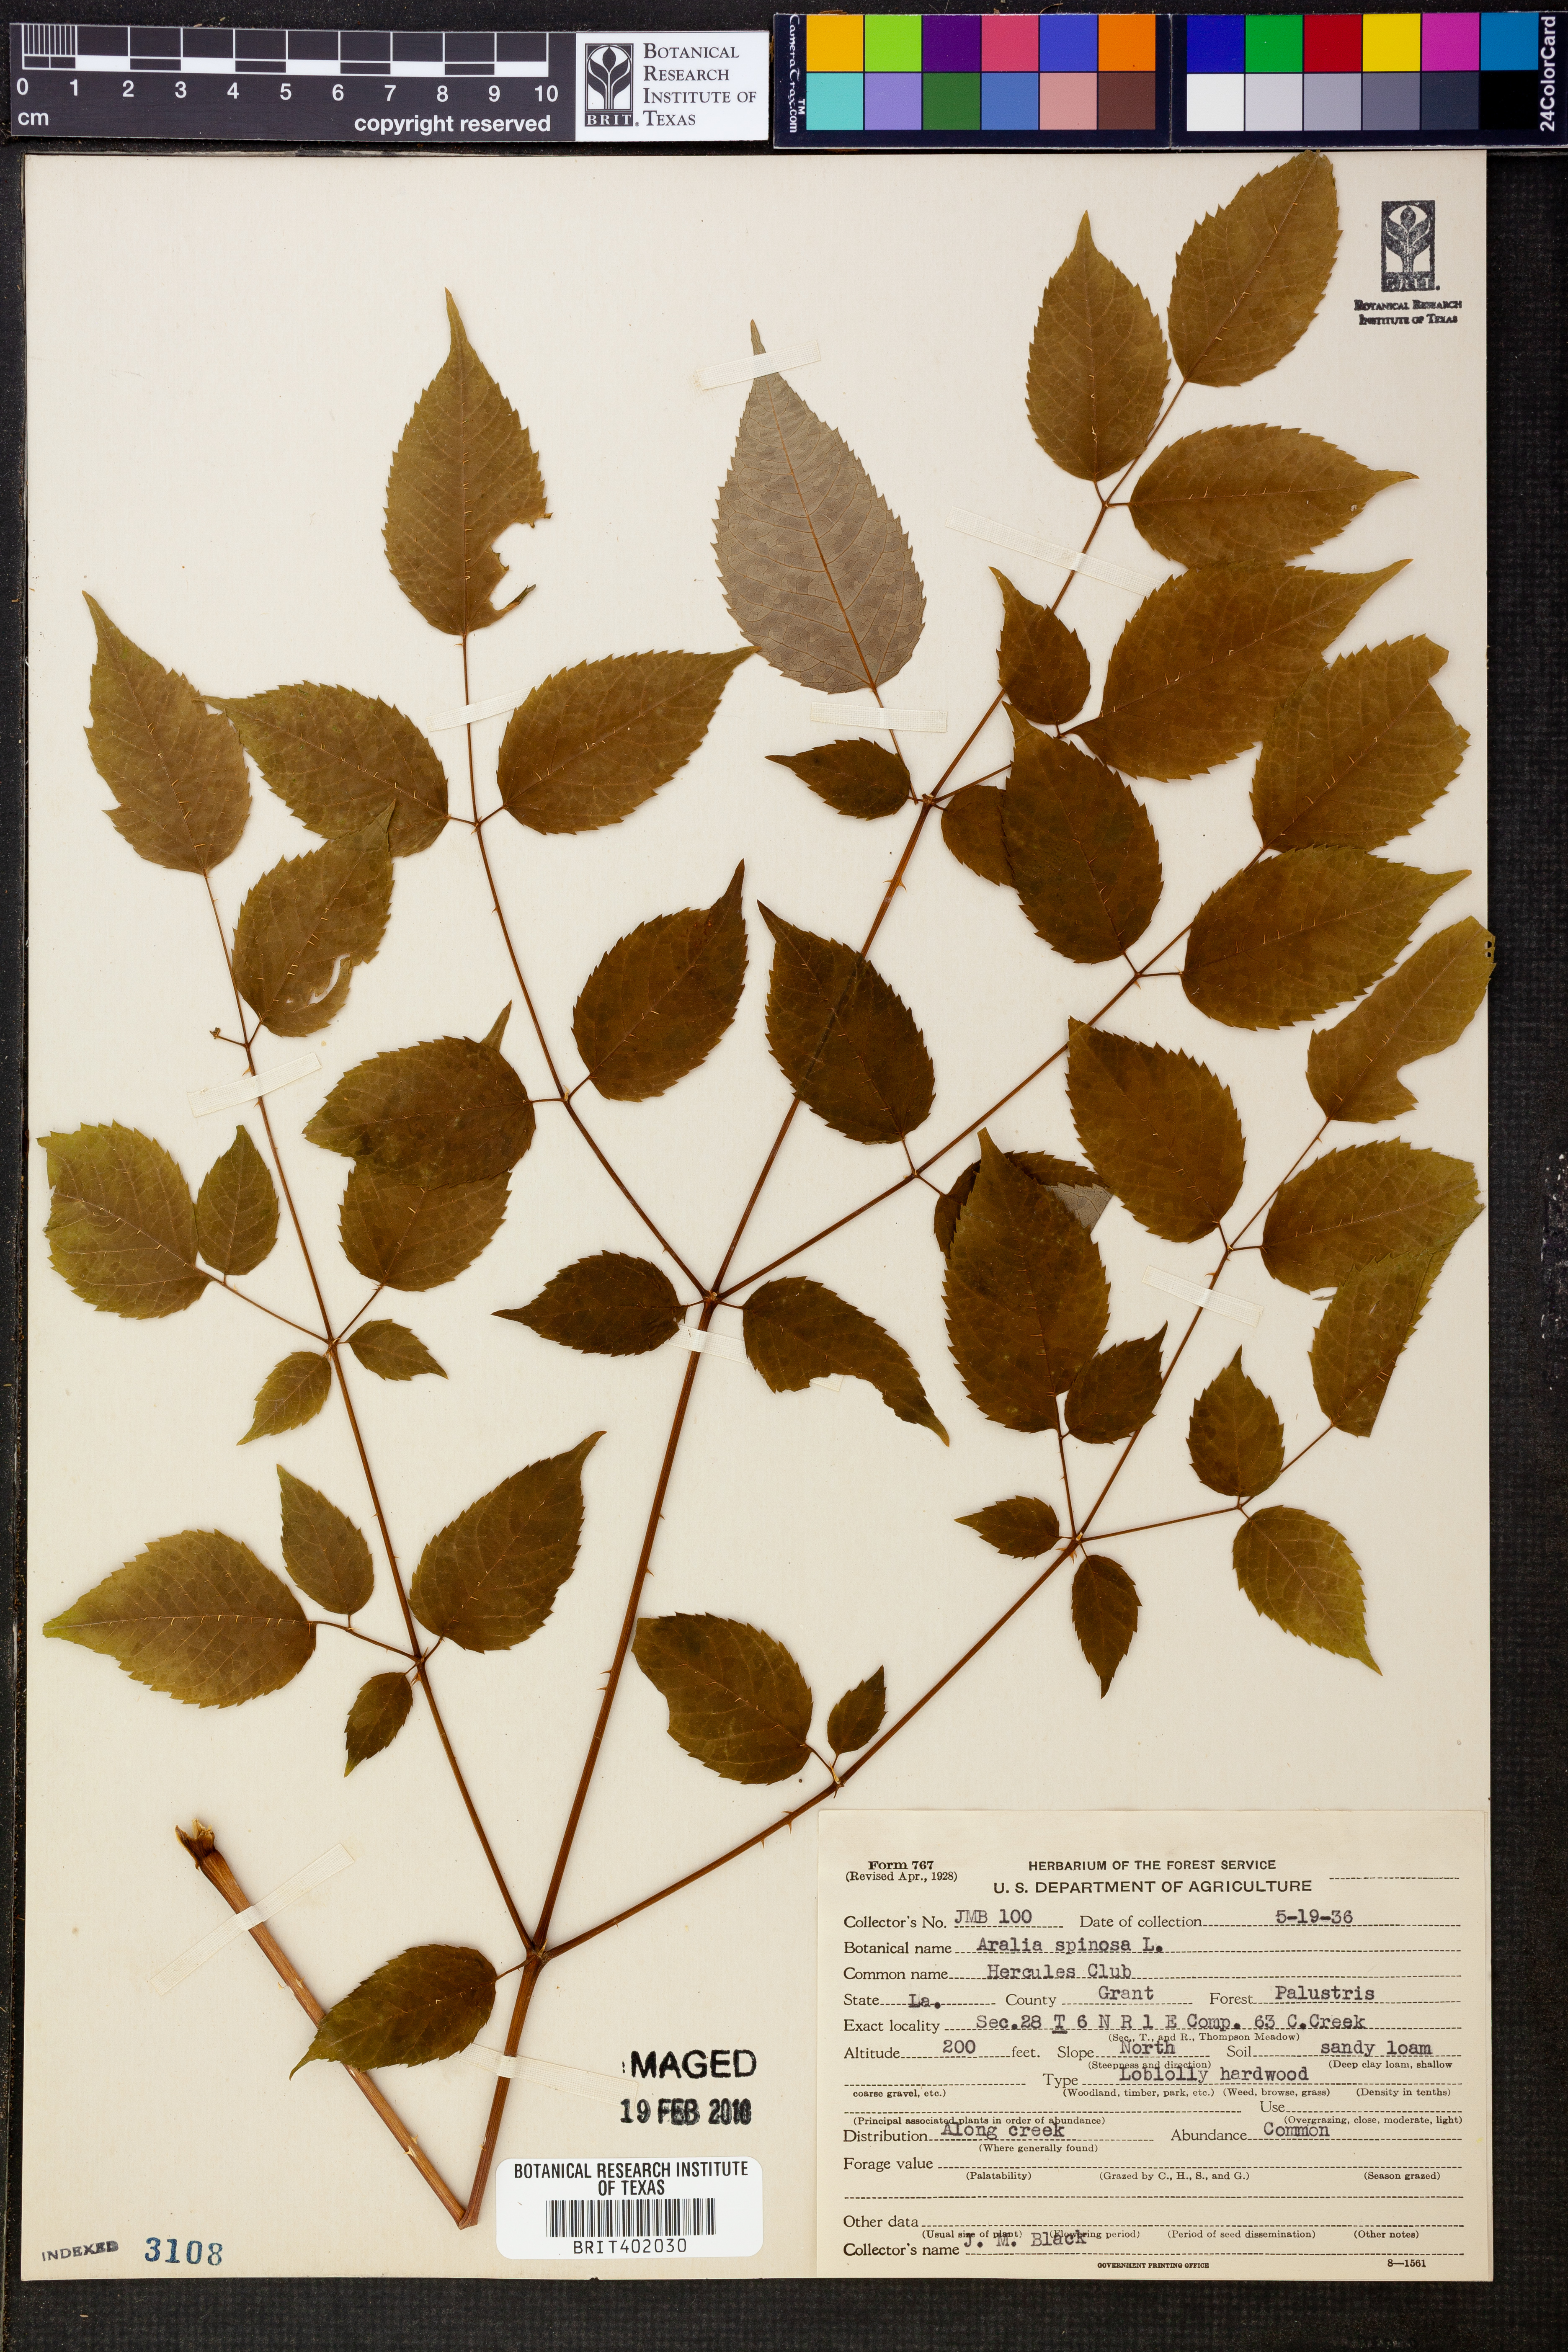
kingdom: Plantae
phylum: Tracheophyta
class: Magnoliopsida
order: Apiales
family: Araliaceae
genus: Aralia
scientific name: Aralia spinosa
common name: Hercules'-club
